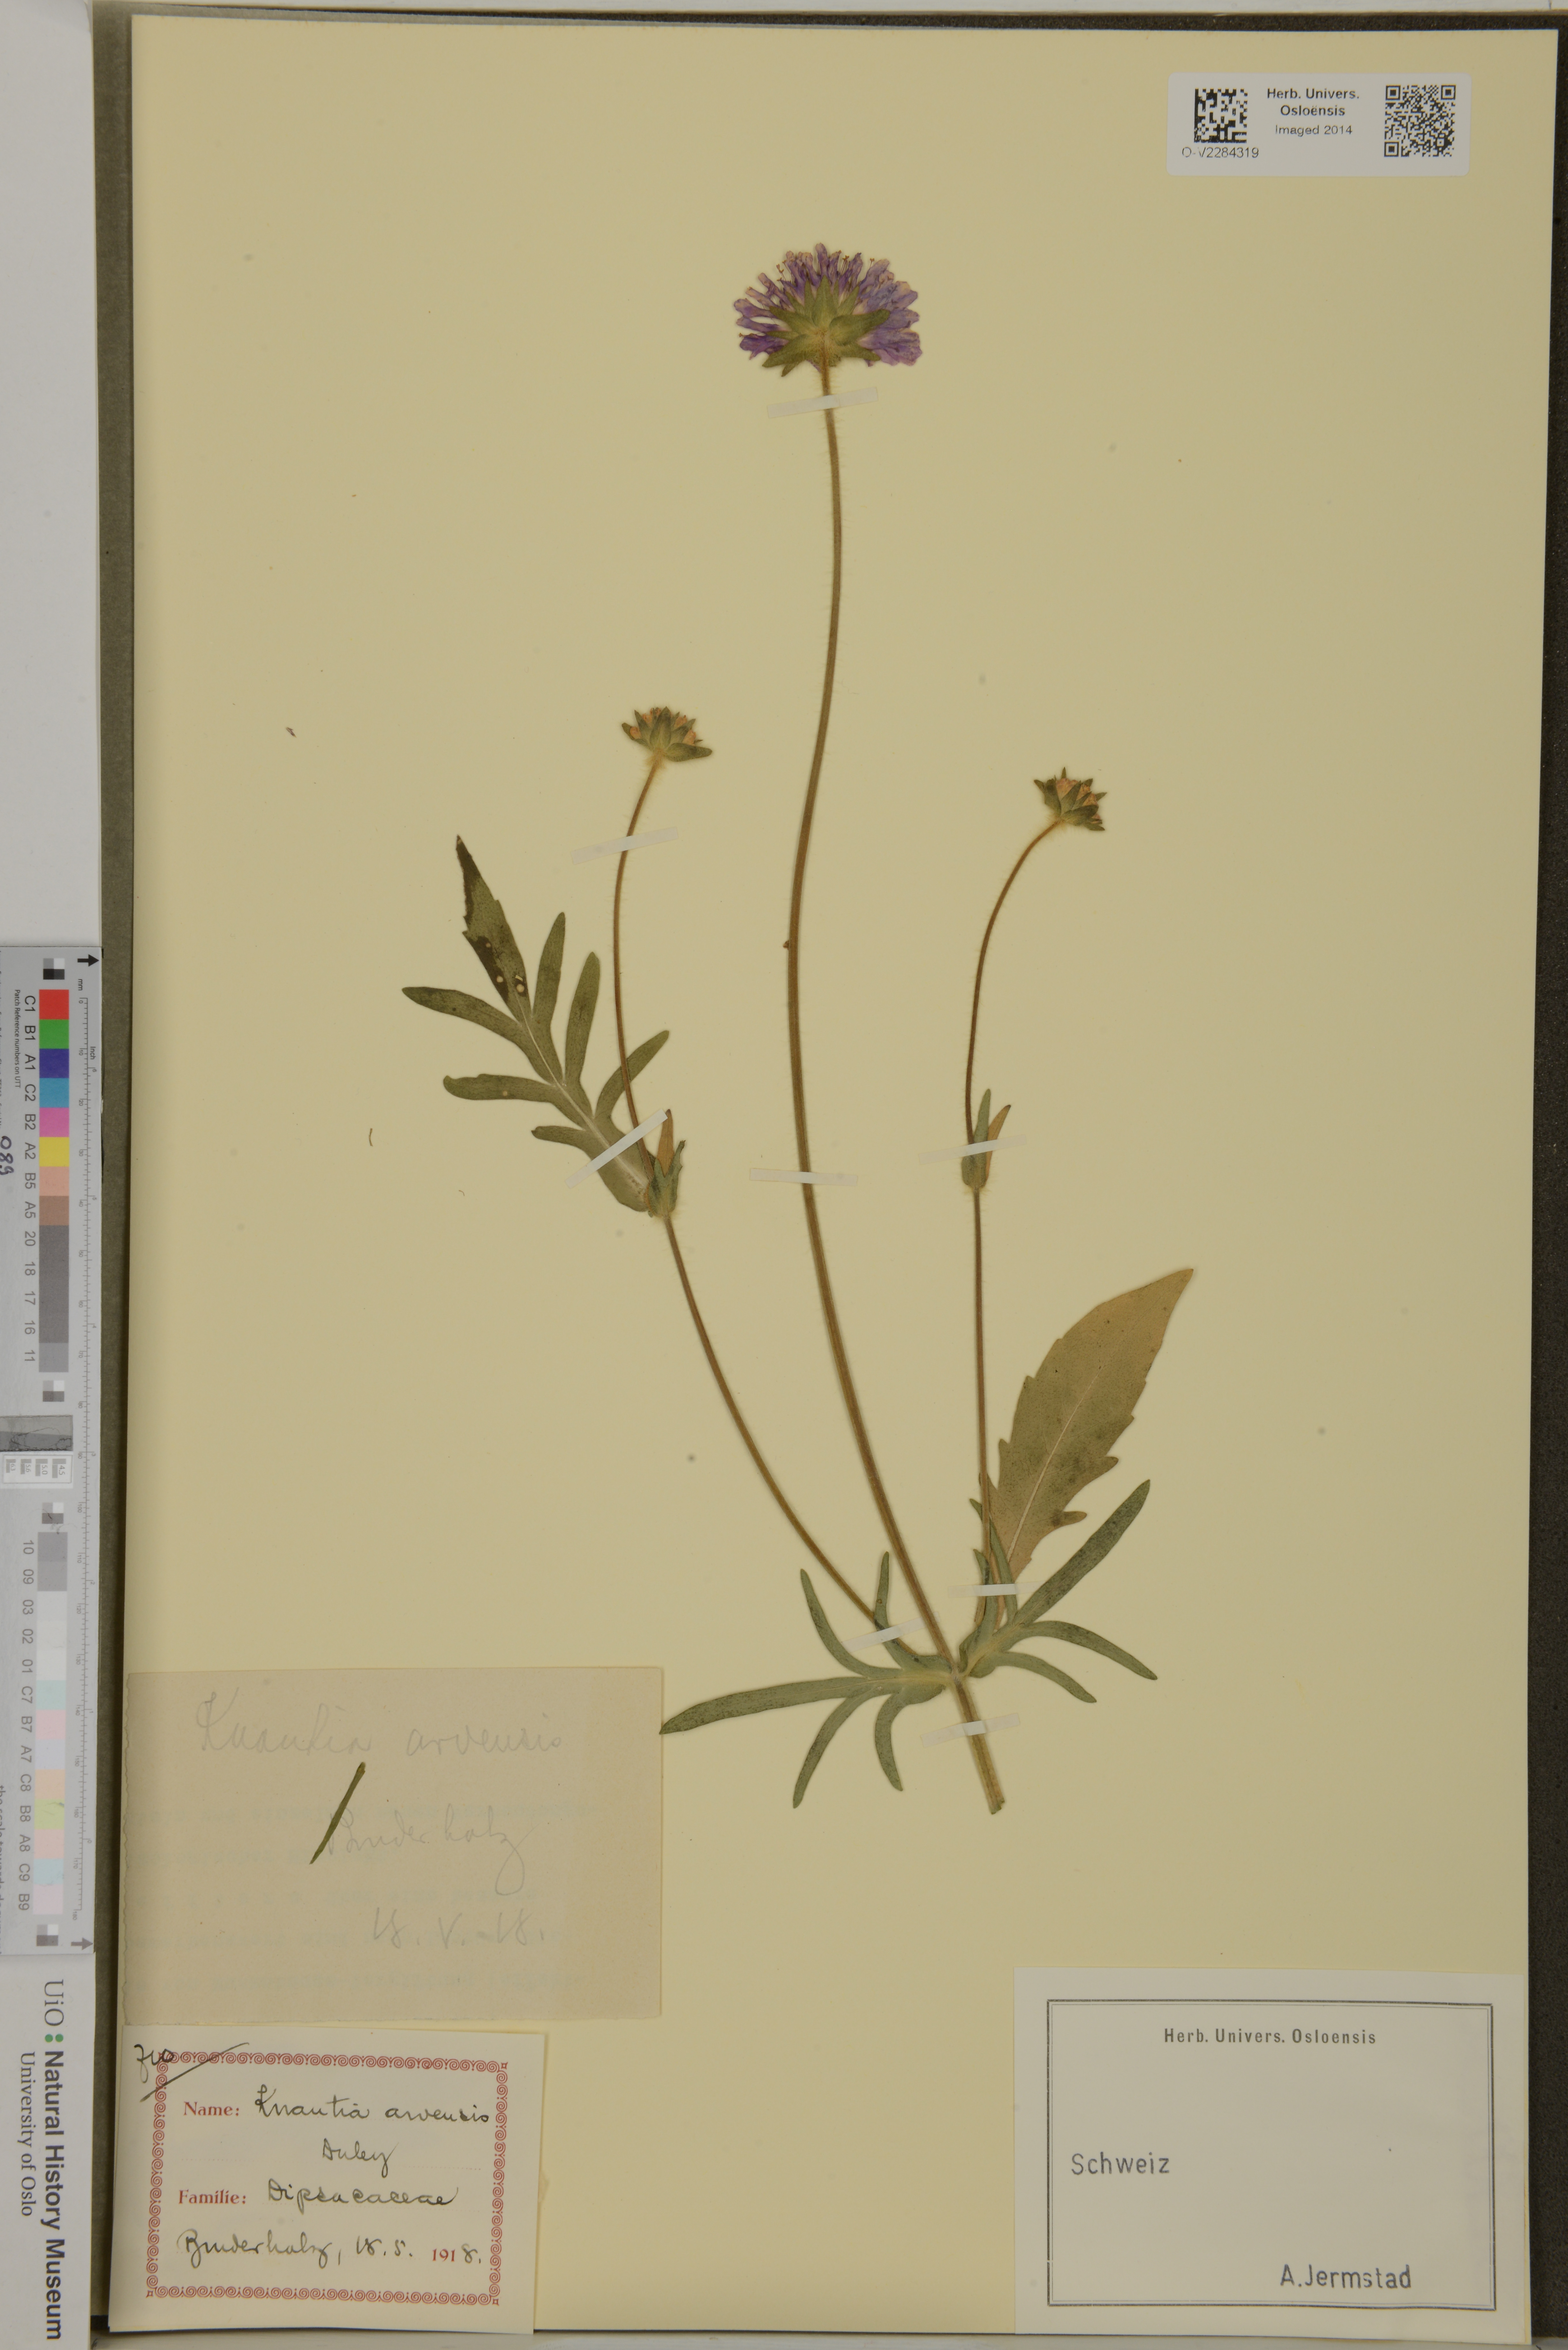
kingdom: Plantae
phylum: Tracheophyta
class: Magnoliopsida
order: Dipsacales
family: Caprifoliaceae
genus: Knautia
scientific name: Knautia arvensis
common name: Field scabiosa
